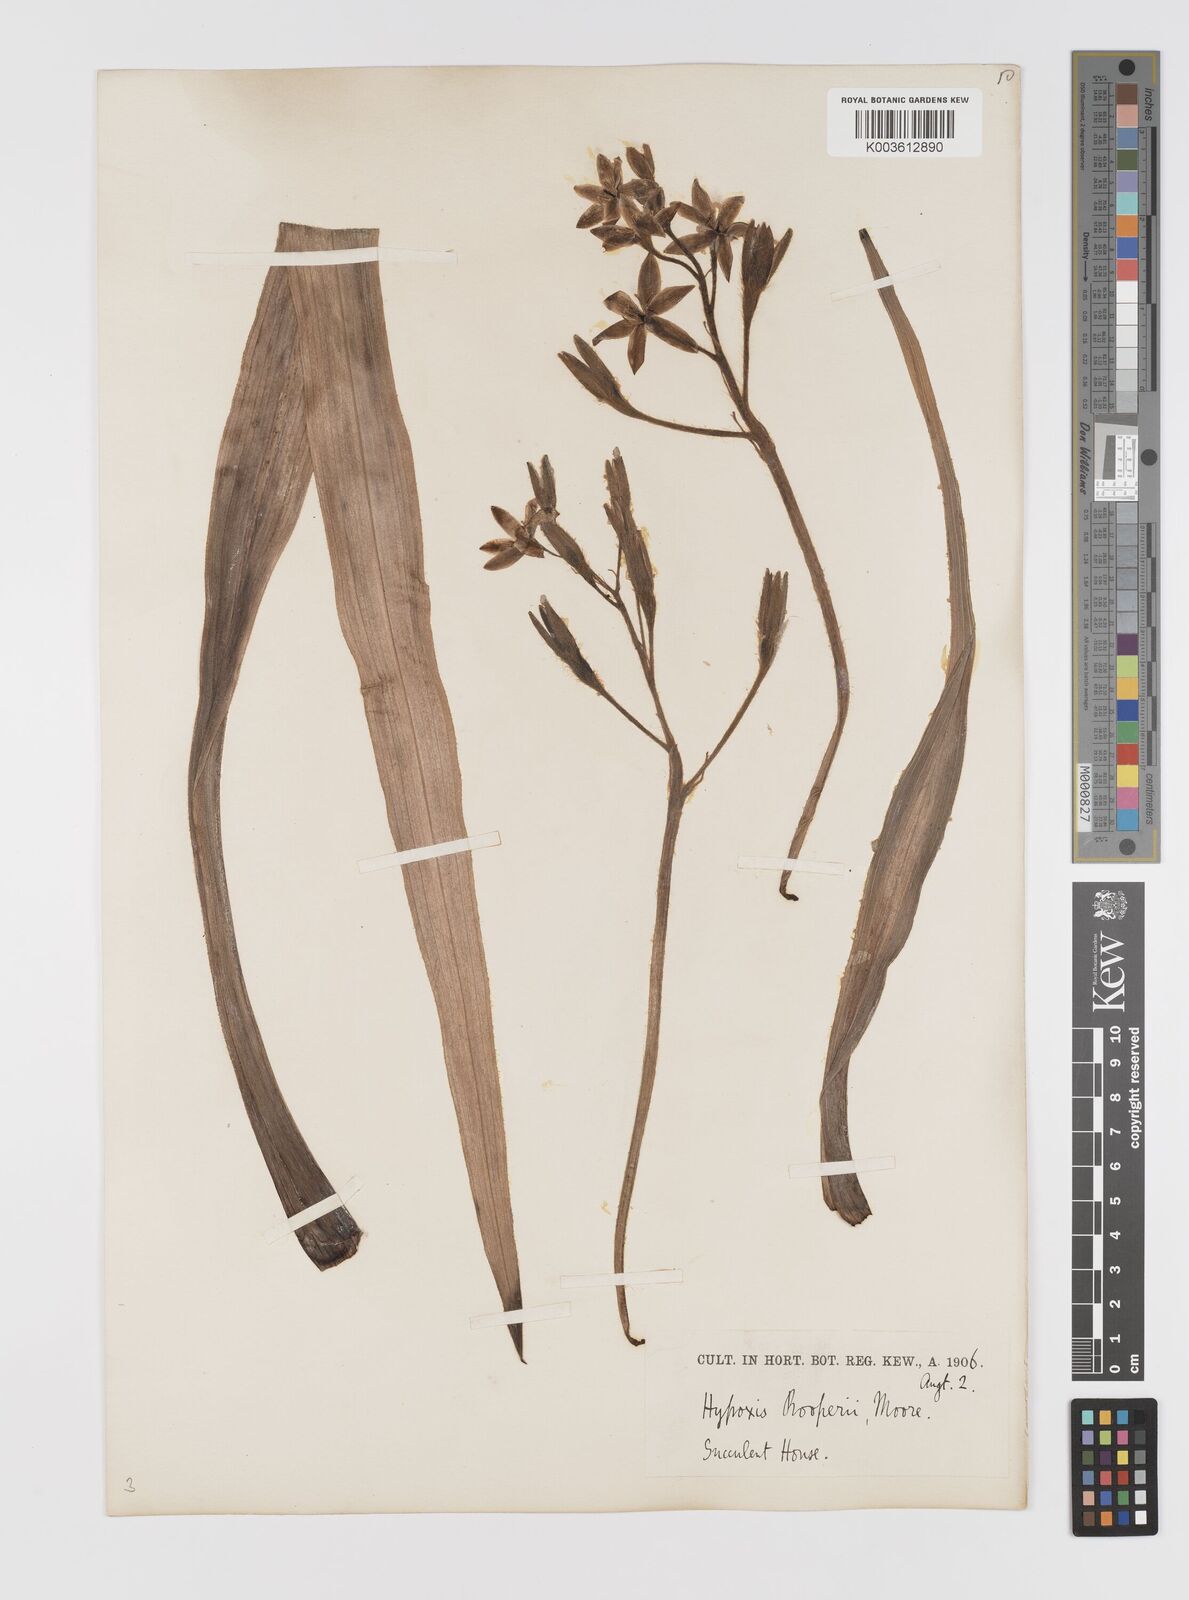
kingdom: Plantae
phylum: Tracheophyta
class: Liliopsida
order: Asparagales
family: Hypoxidaceae
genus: Hypoxis
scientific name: Hypoxis hemerocallidea
